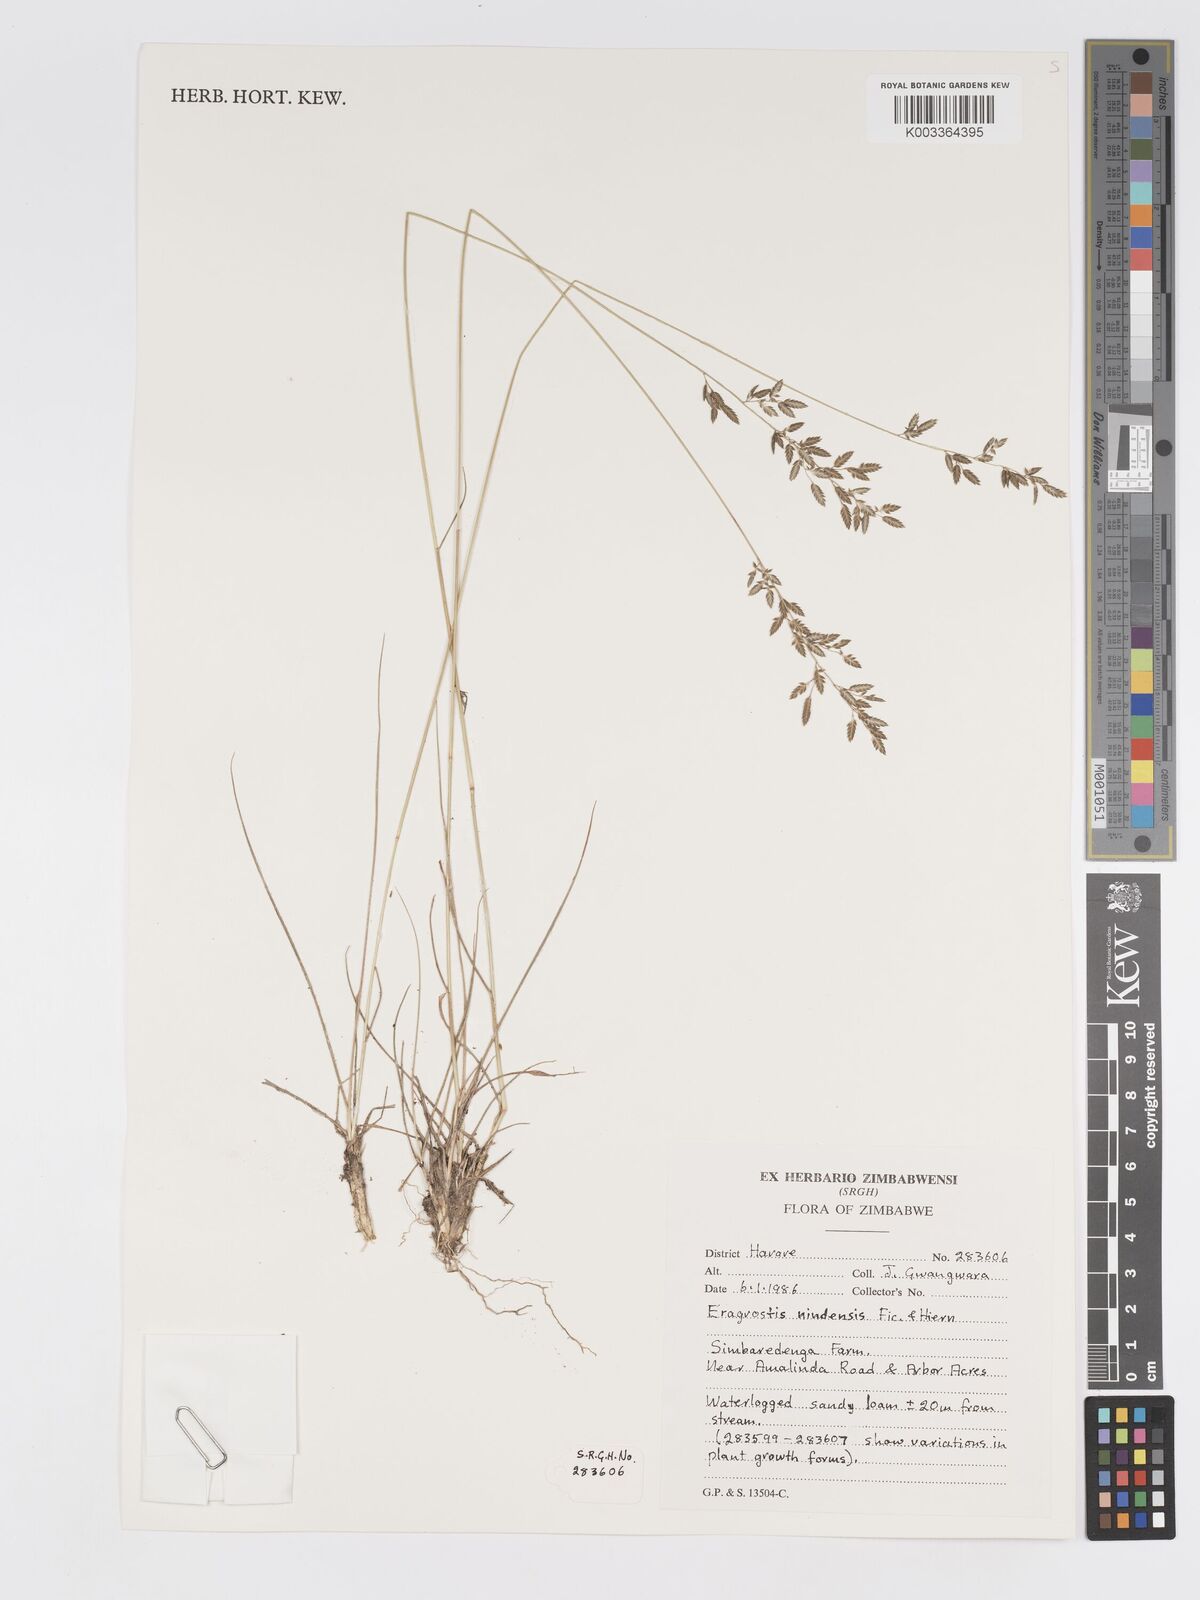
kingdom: Plantae
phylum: Tracheophyta
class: Liliopsida
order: Poales
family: Poaceae
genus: Eragrostis
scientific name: Eragrostis racemosa
